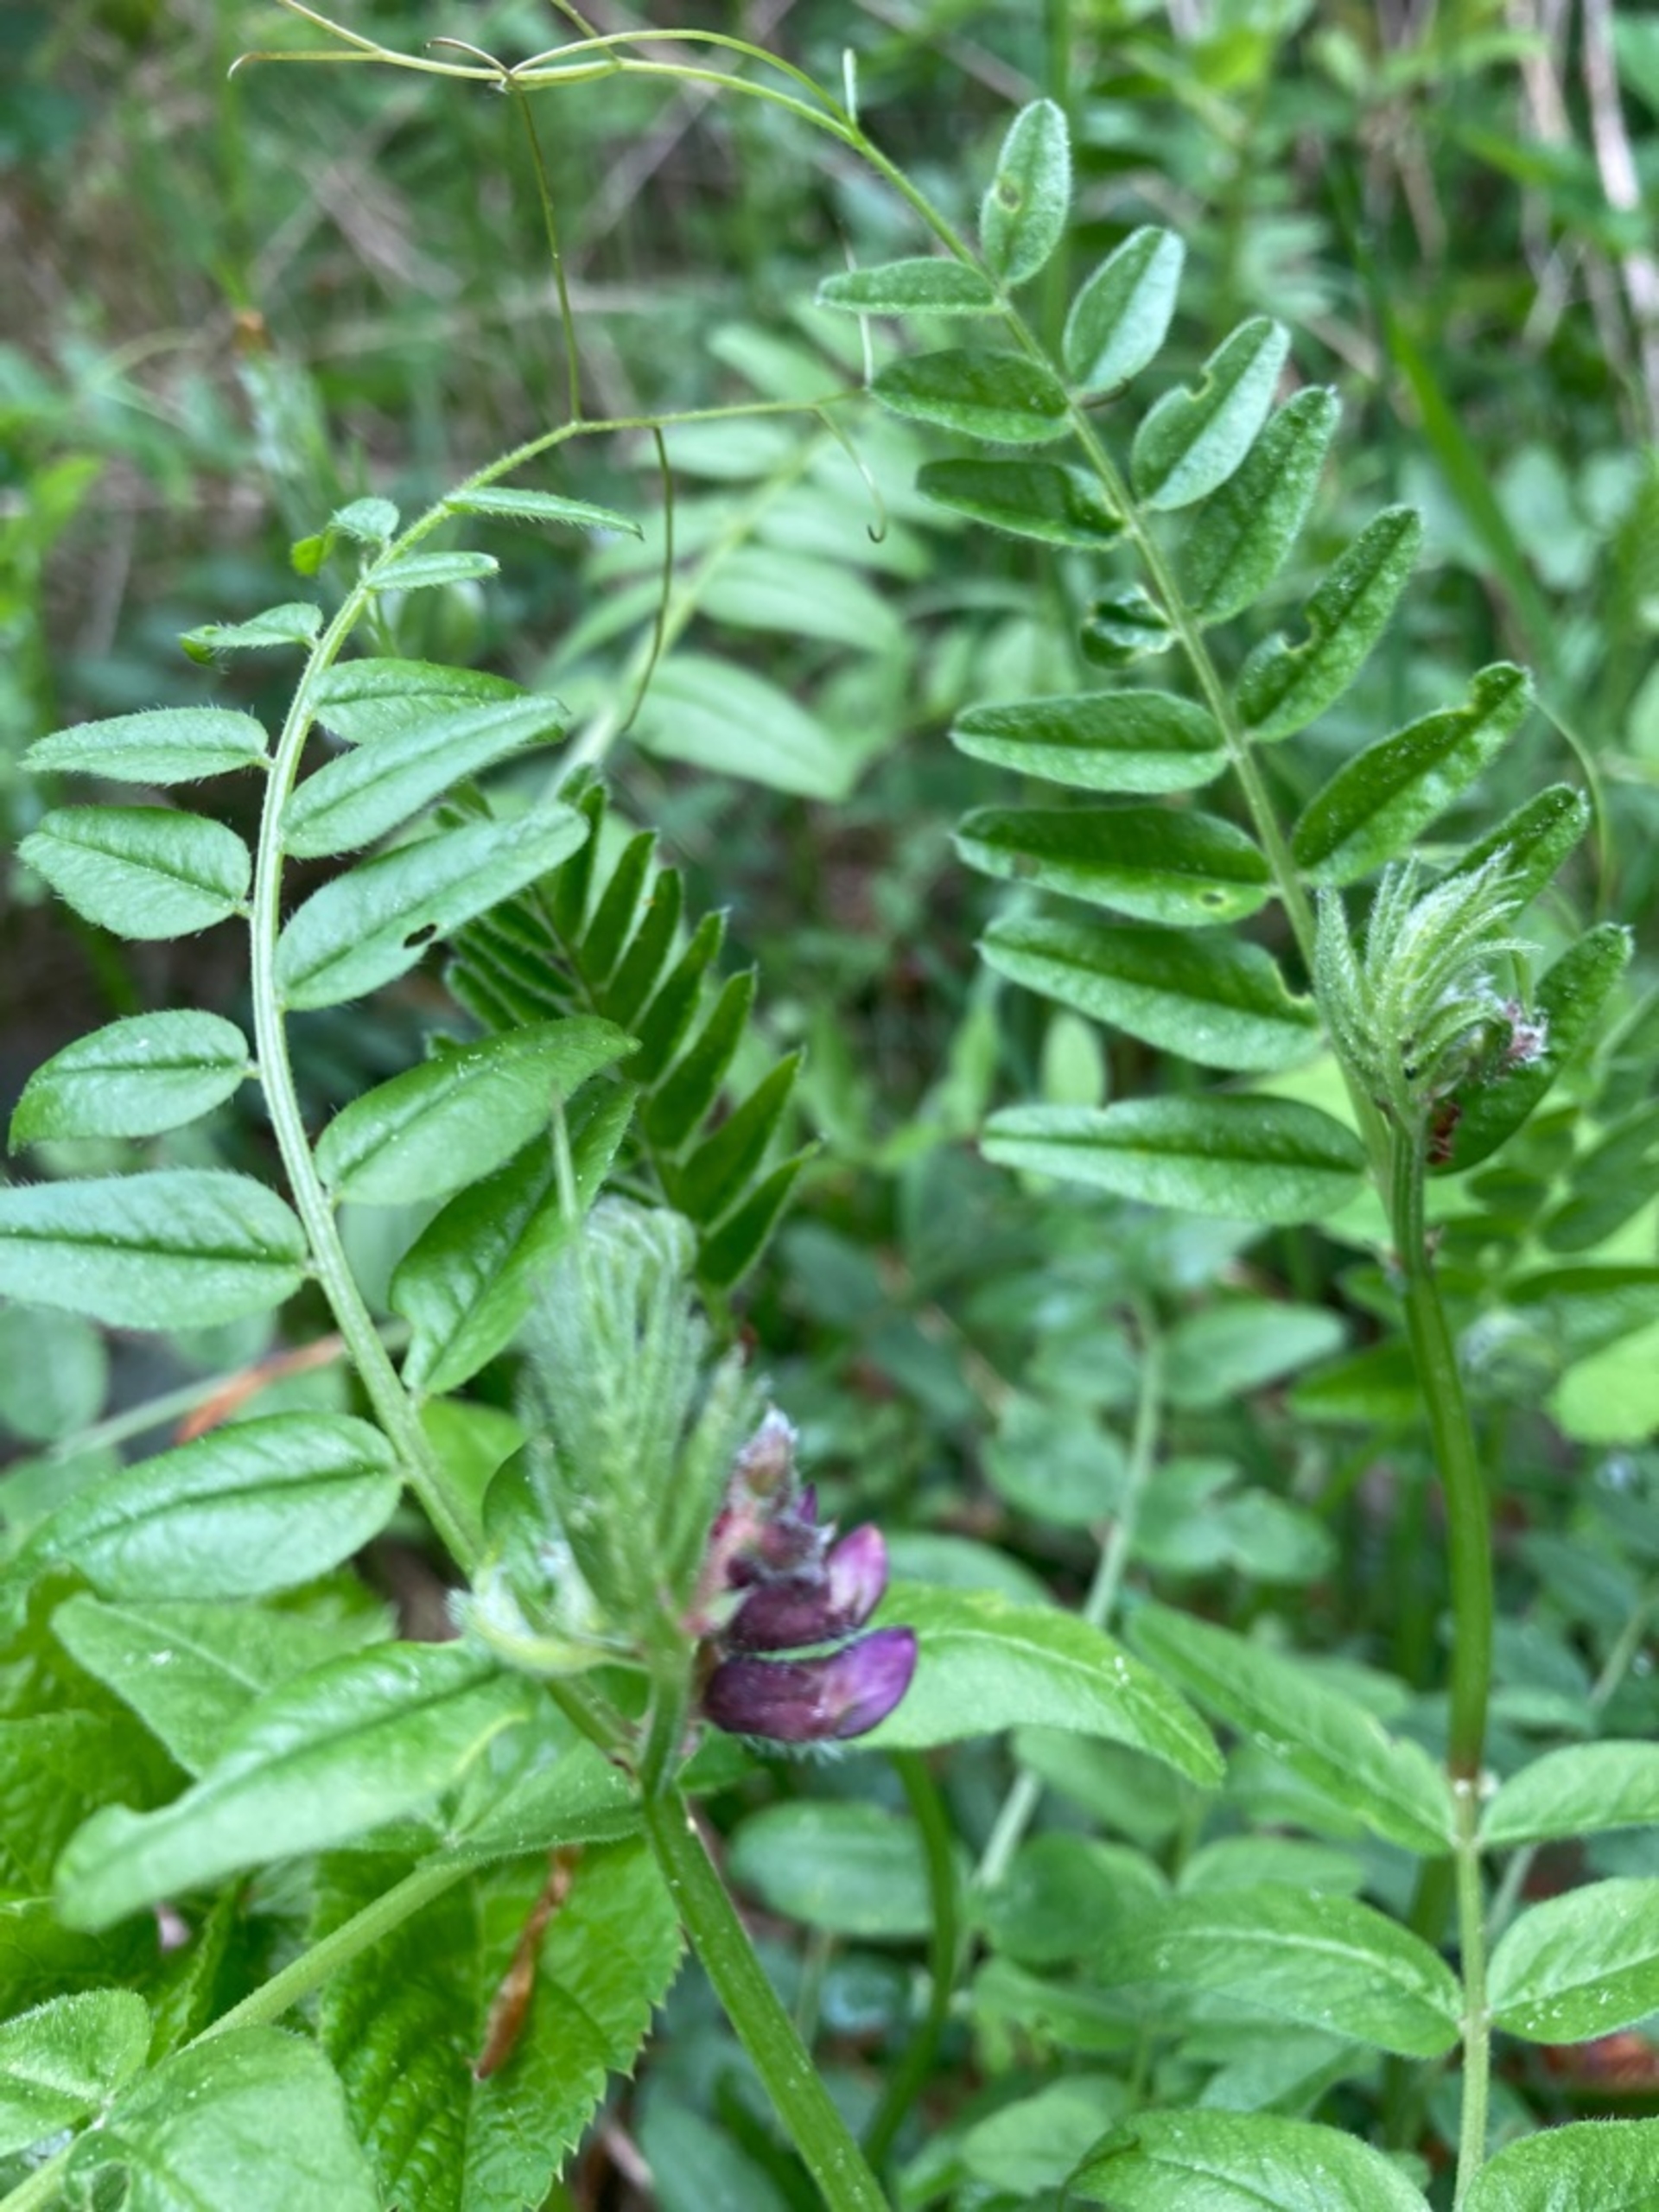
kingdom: Plantae
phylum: Tracheophyta
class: Magnoliopsida
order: Fabales
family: Fabaceae
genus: Vicia
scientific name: Vicia sepium
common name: Gærde-vikke
